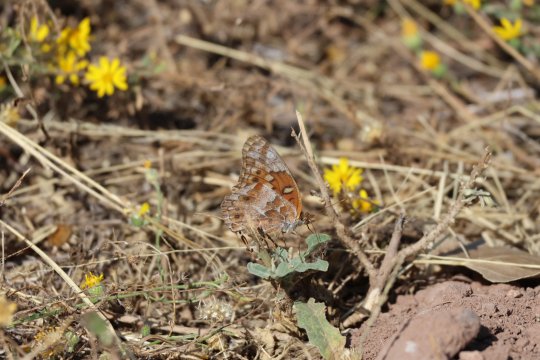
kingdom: Animalia
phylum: Arthropoda
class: Insecta
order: Lepidoptera
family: Nymphalidae
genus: Euptoieta
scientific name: Euptoieta claudia
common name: Variegated Fritillary
